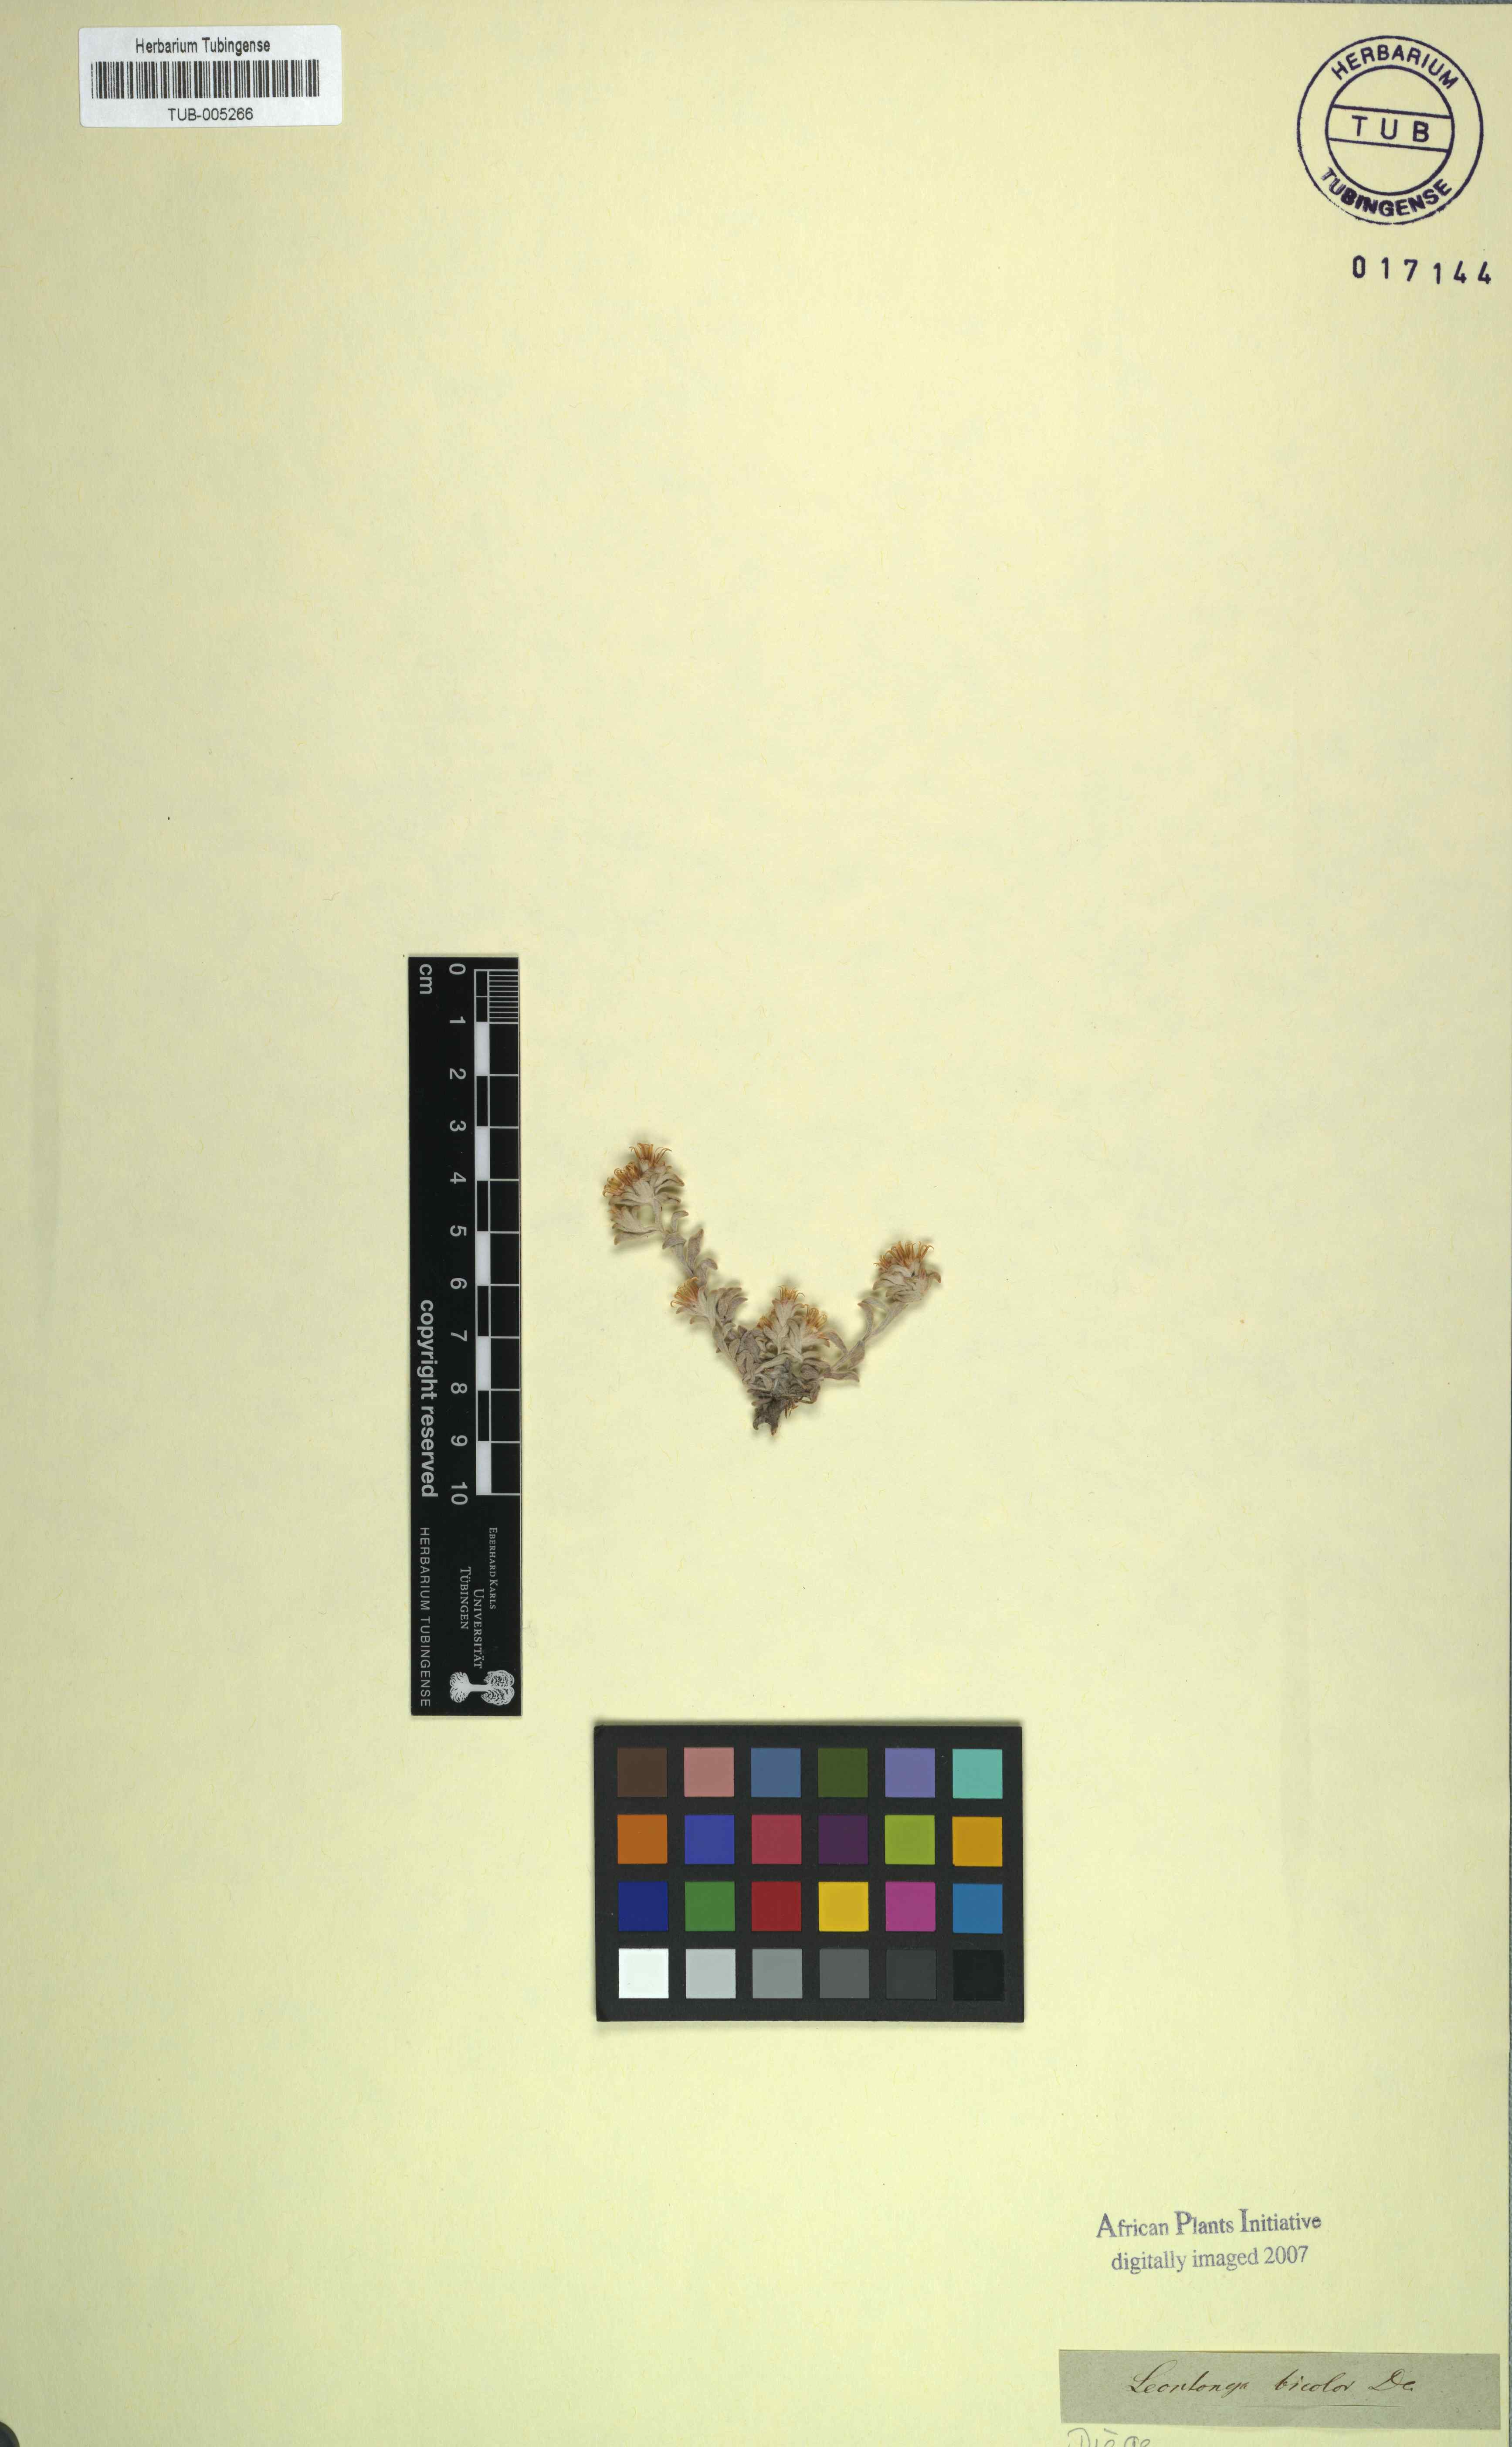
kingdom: Plantae
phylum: Tracheophyta
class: Magnoliopsida
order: Asterales
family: Asteraceae
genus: Helichrysum
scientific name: Helichrysum tinctum
